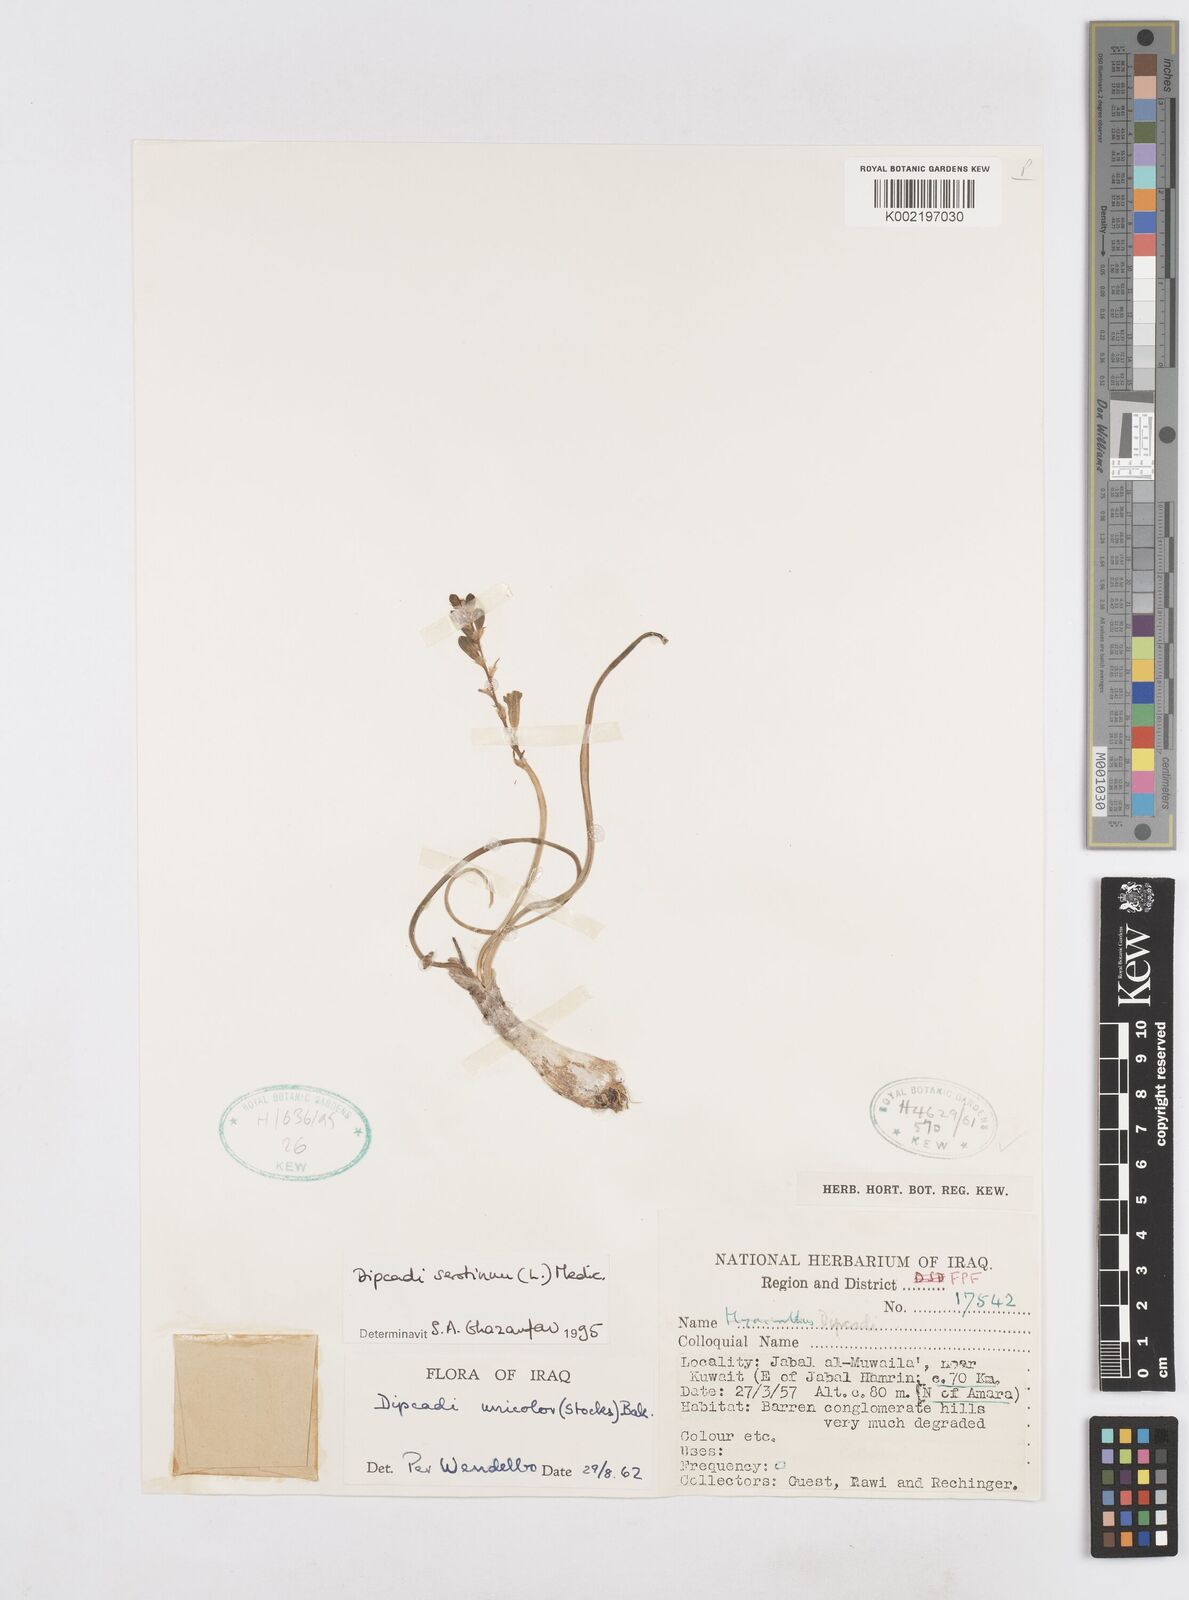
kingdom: Plantae
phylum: Tracheophyta
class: Liliopsida
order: Asparagales
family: Asparagaceae
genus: Dipcadi
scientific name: Dipcadi serotinum
